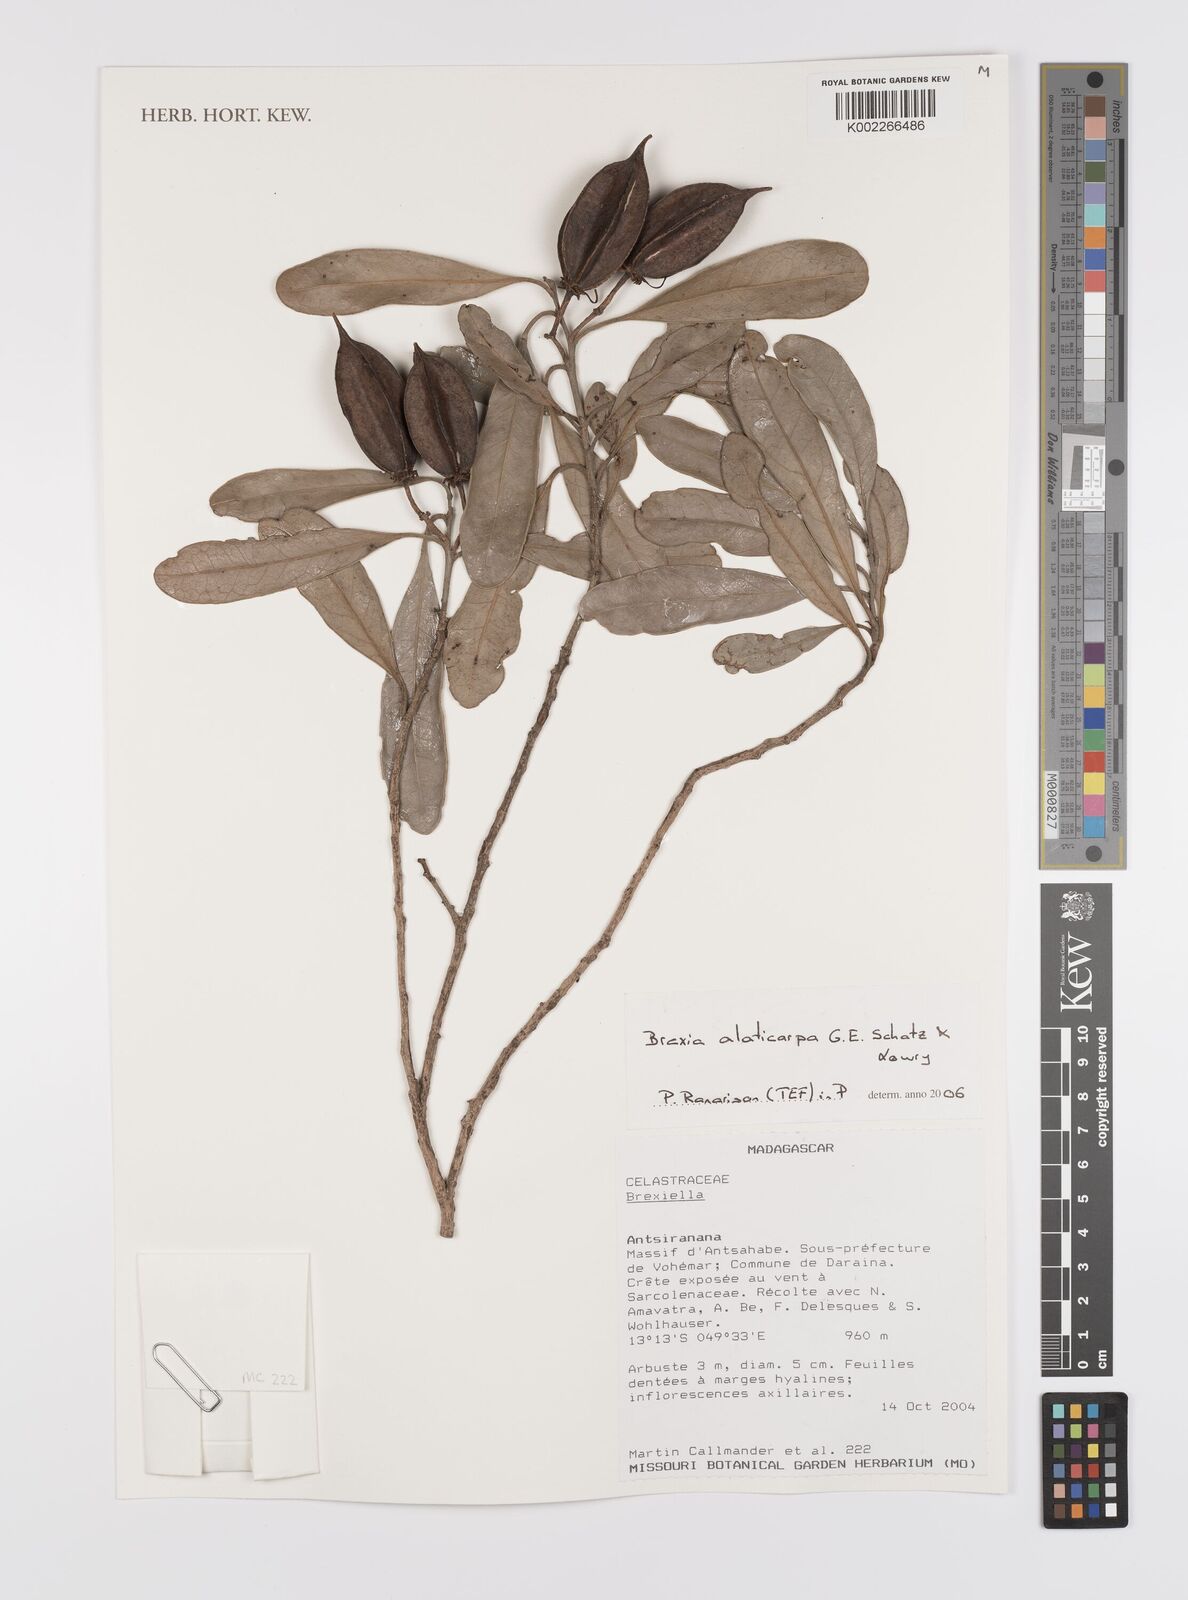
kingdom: Plantae
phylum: Tracheophyta
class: Magnoliopsida
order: Celastrales
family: Celastraceae
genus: Brexia
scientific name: Brexia alaticarpa
